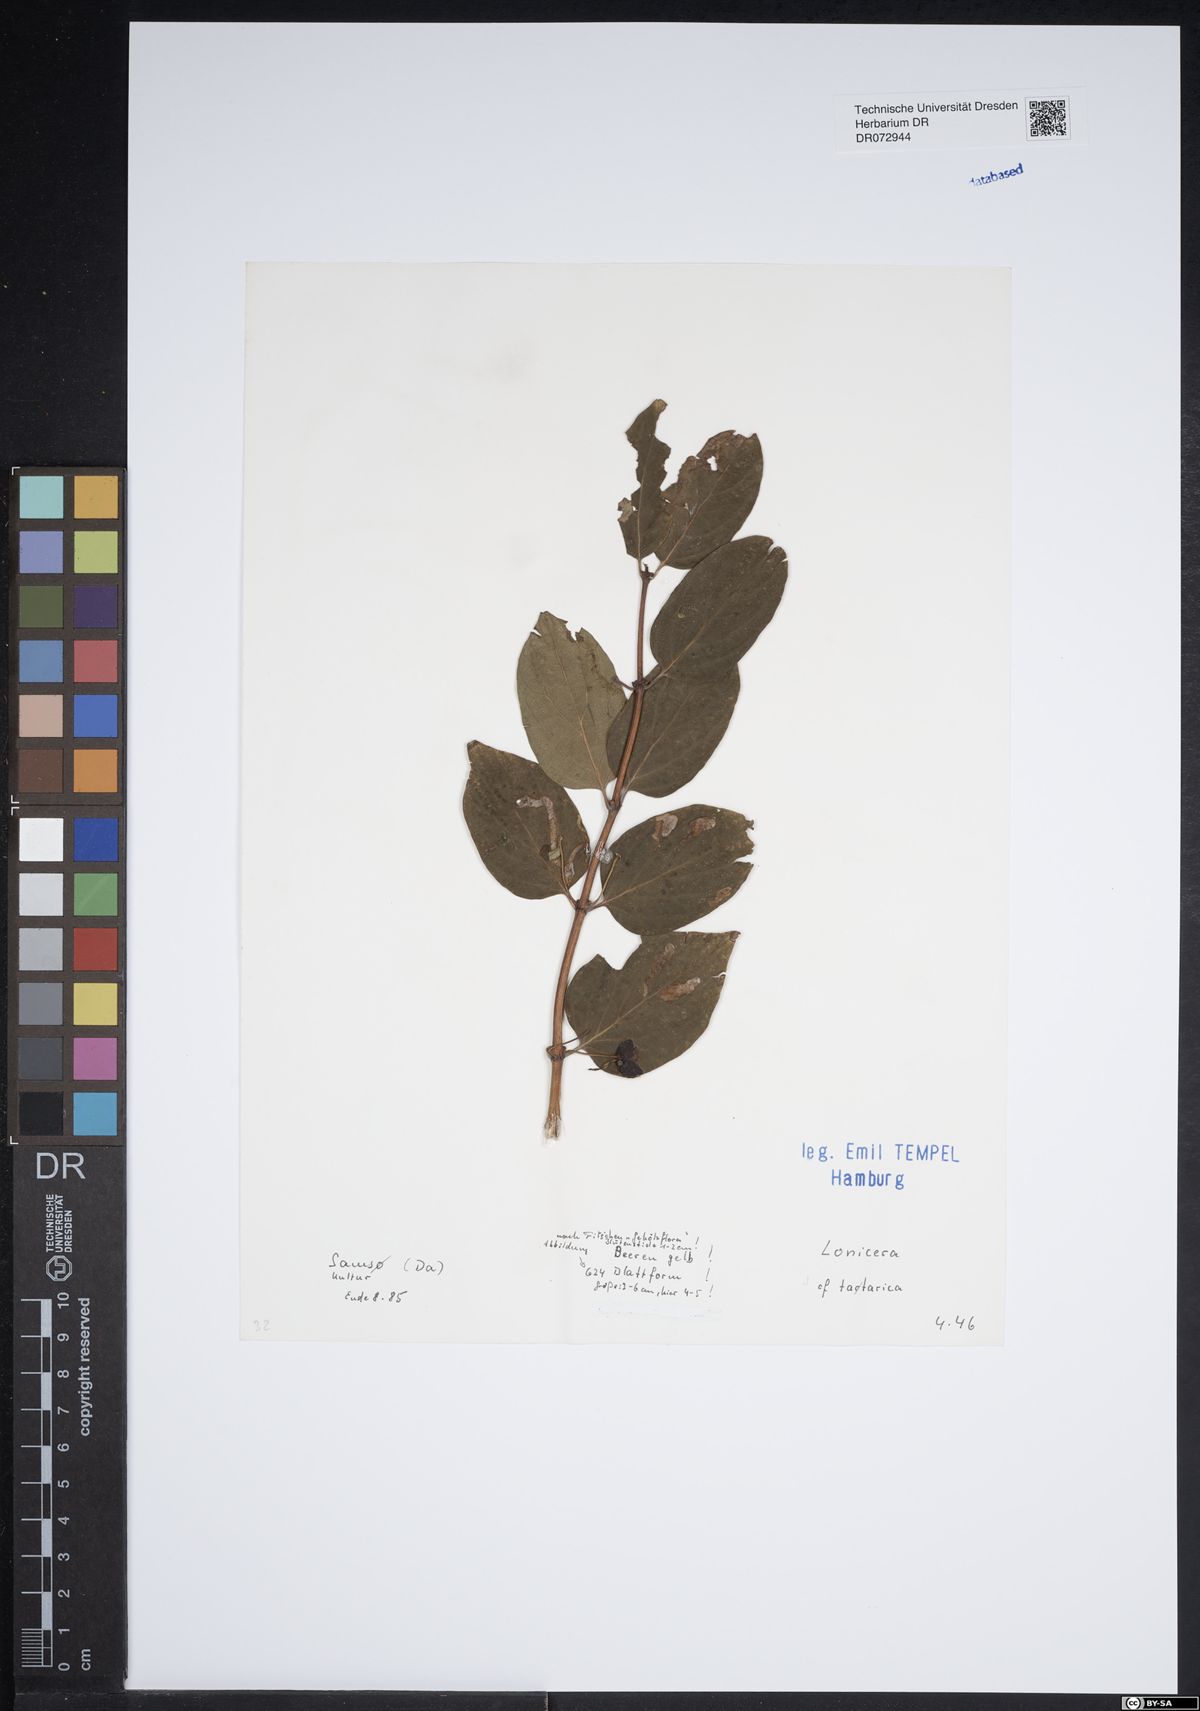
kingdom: Plantae
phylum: Tracheophyta
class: Magnoliopsida
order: Dipsacales
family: Caprifoliaceae
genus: Lonicera
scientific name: Lonicera tatarica
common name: Tatarian honeysuckle
